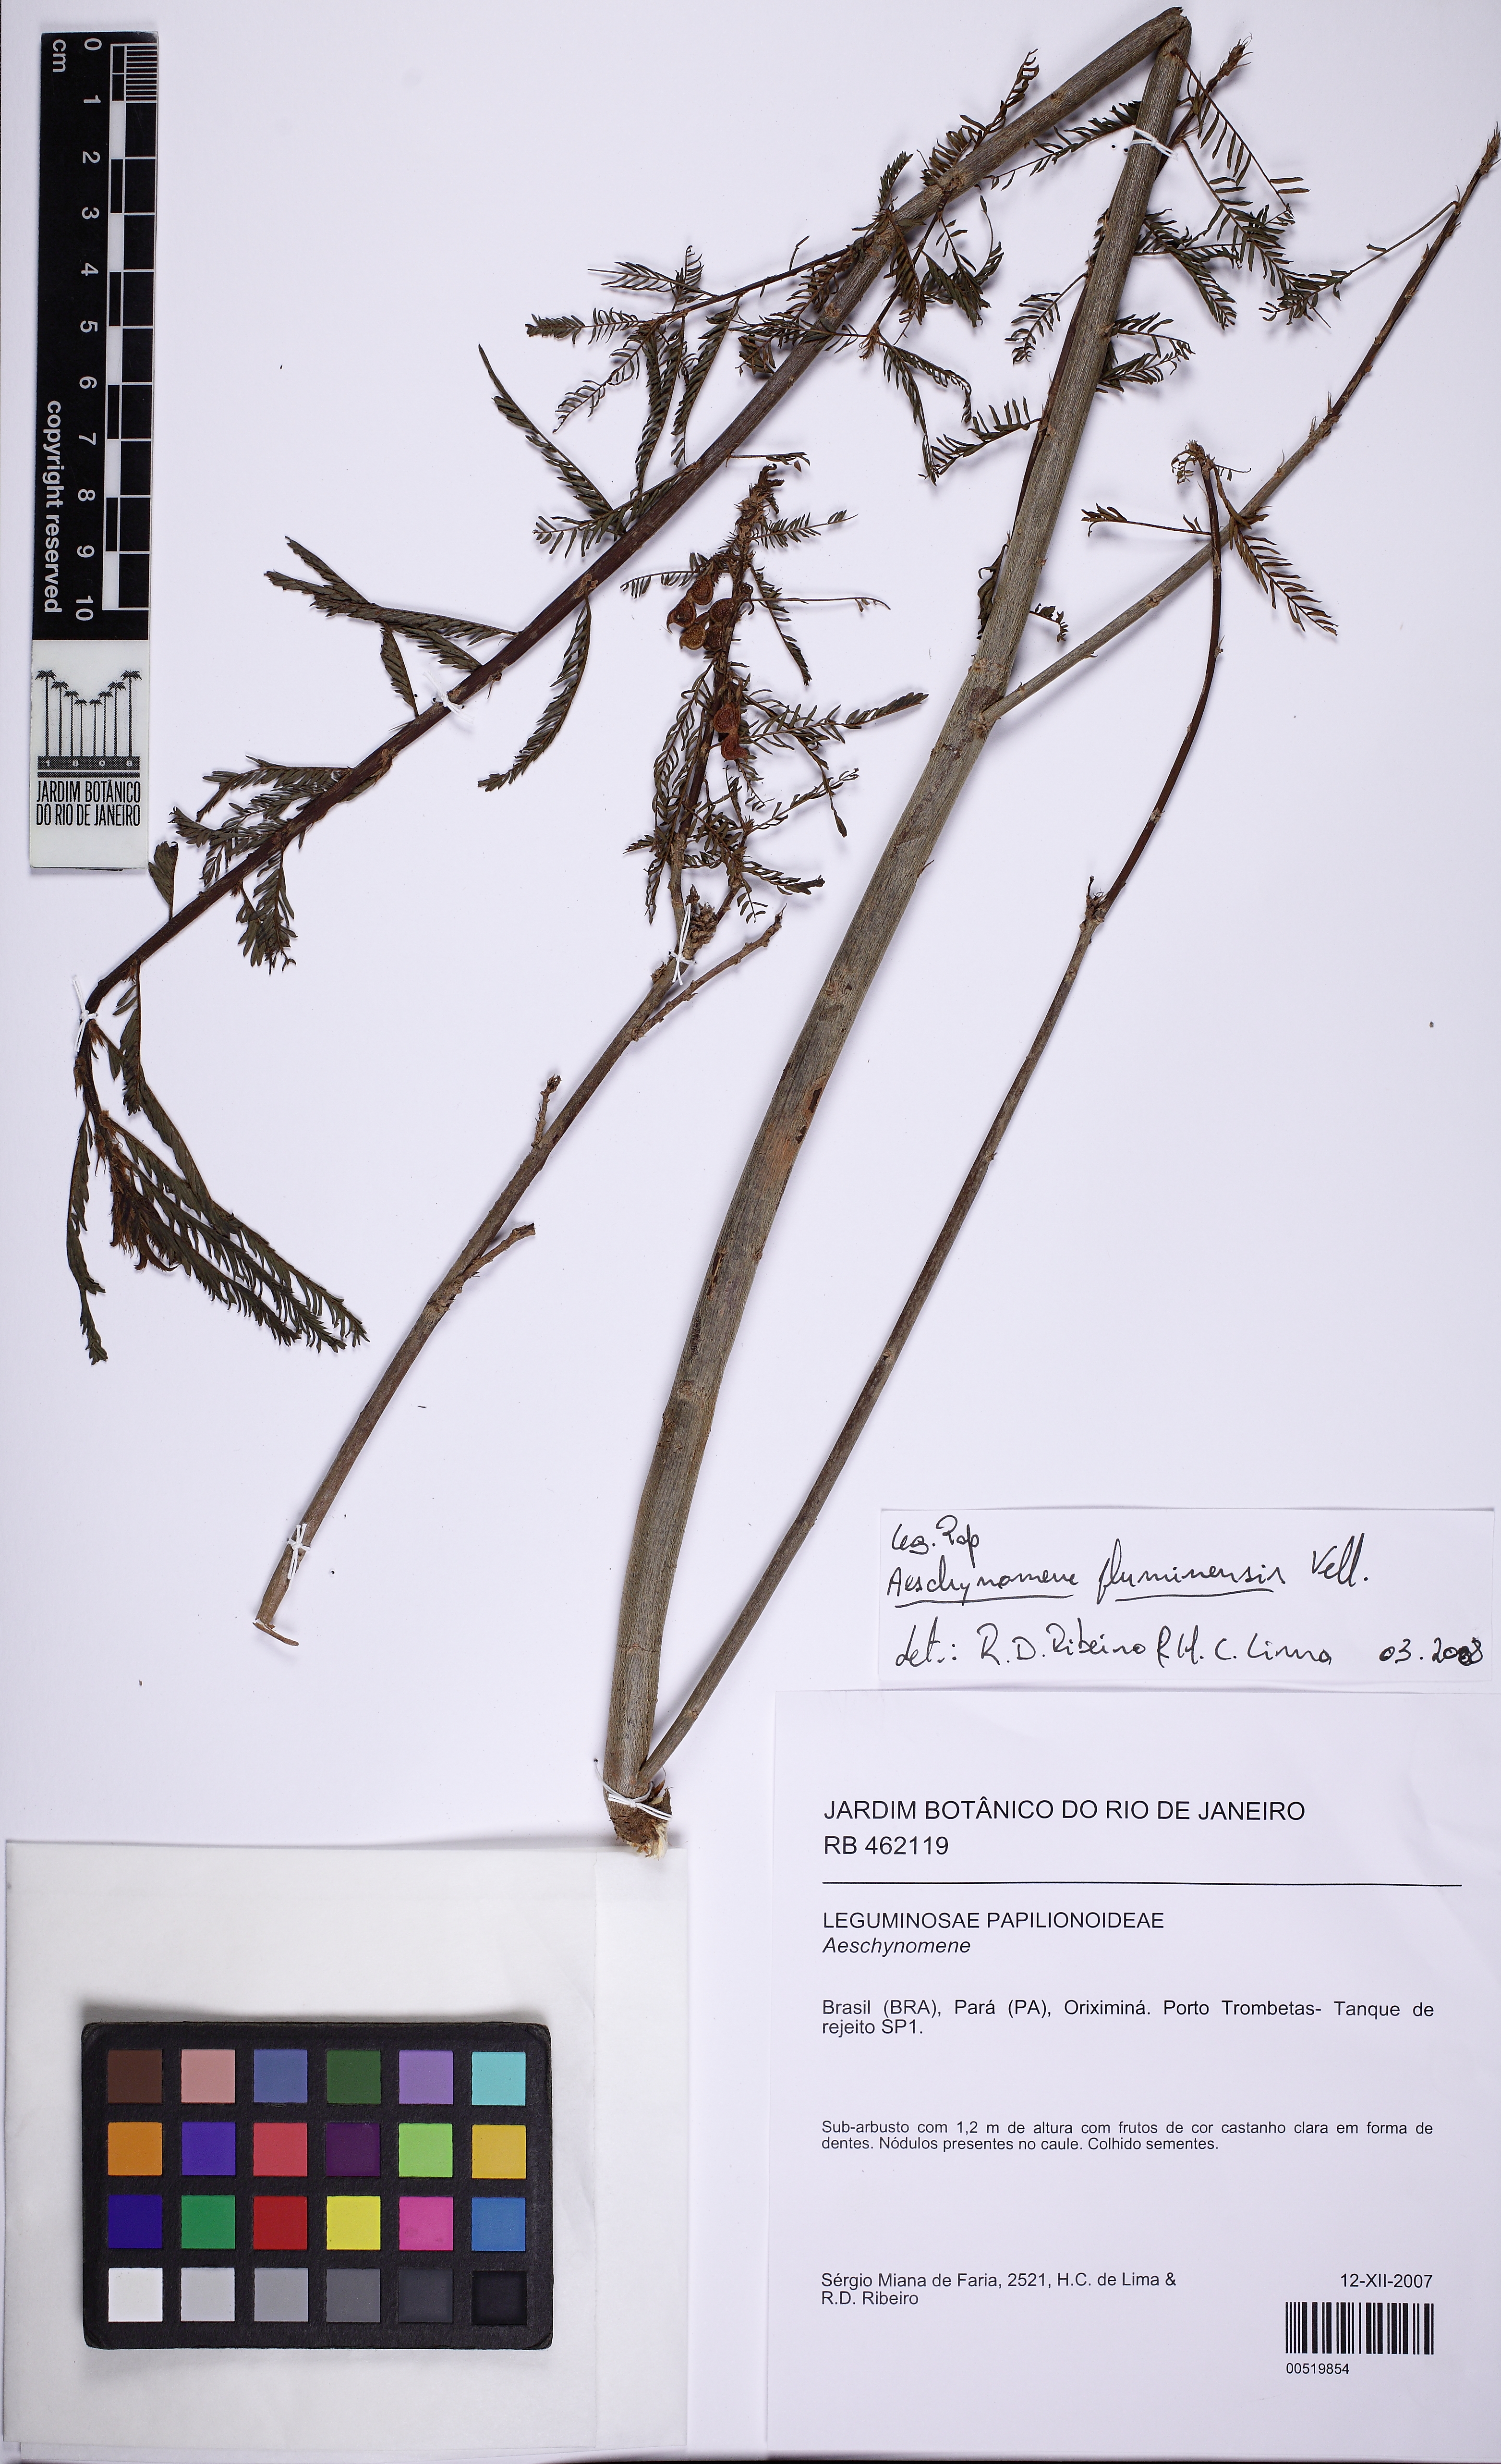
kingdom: Plantae
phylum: Tracheophyta
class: Magnoliopsida
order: Fabales
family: Fabaceae
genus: Aeschynomene
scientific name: Aeschynomene fluminensis
